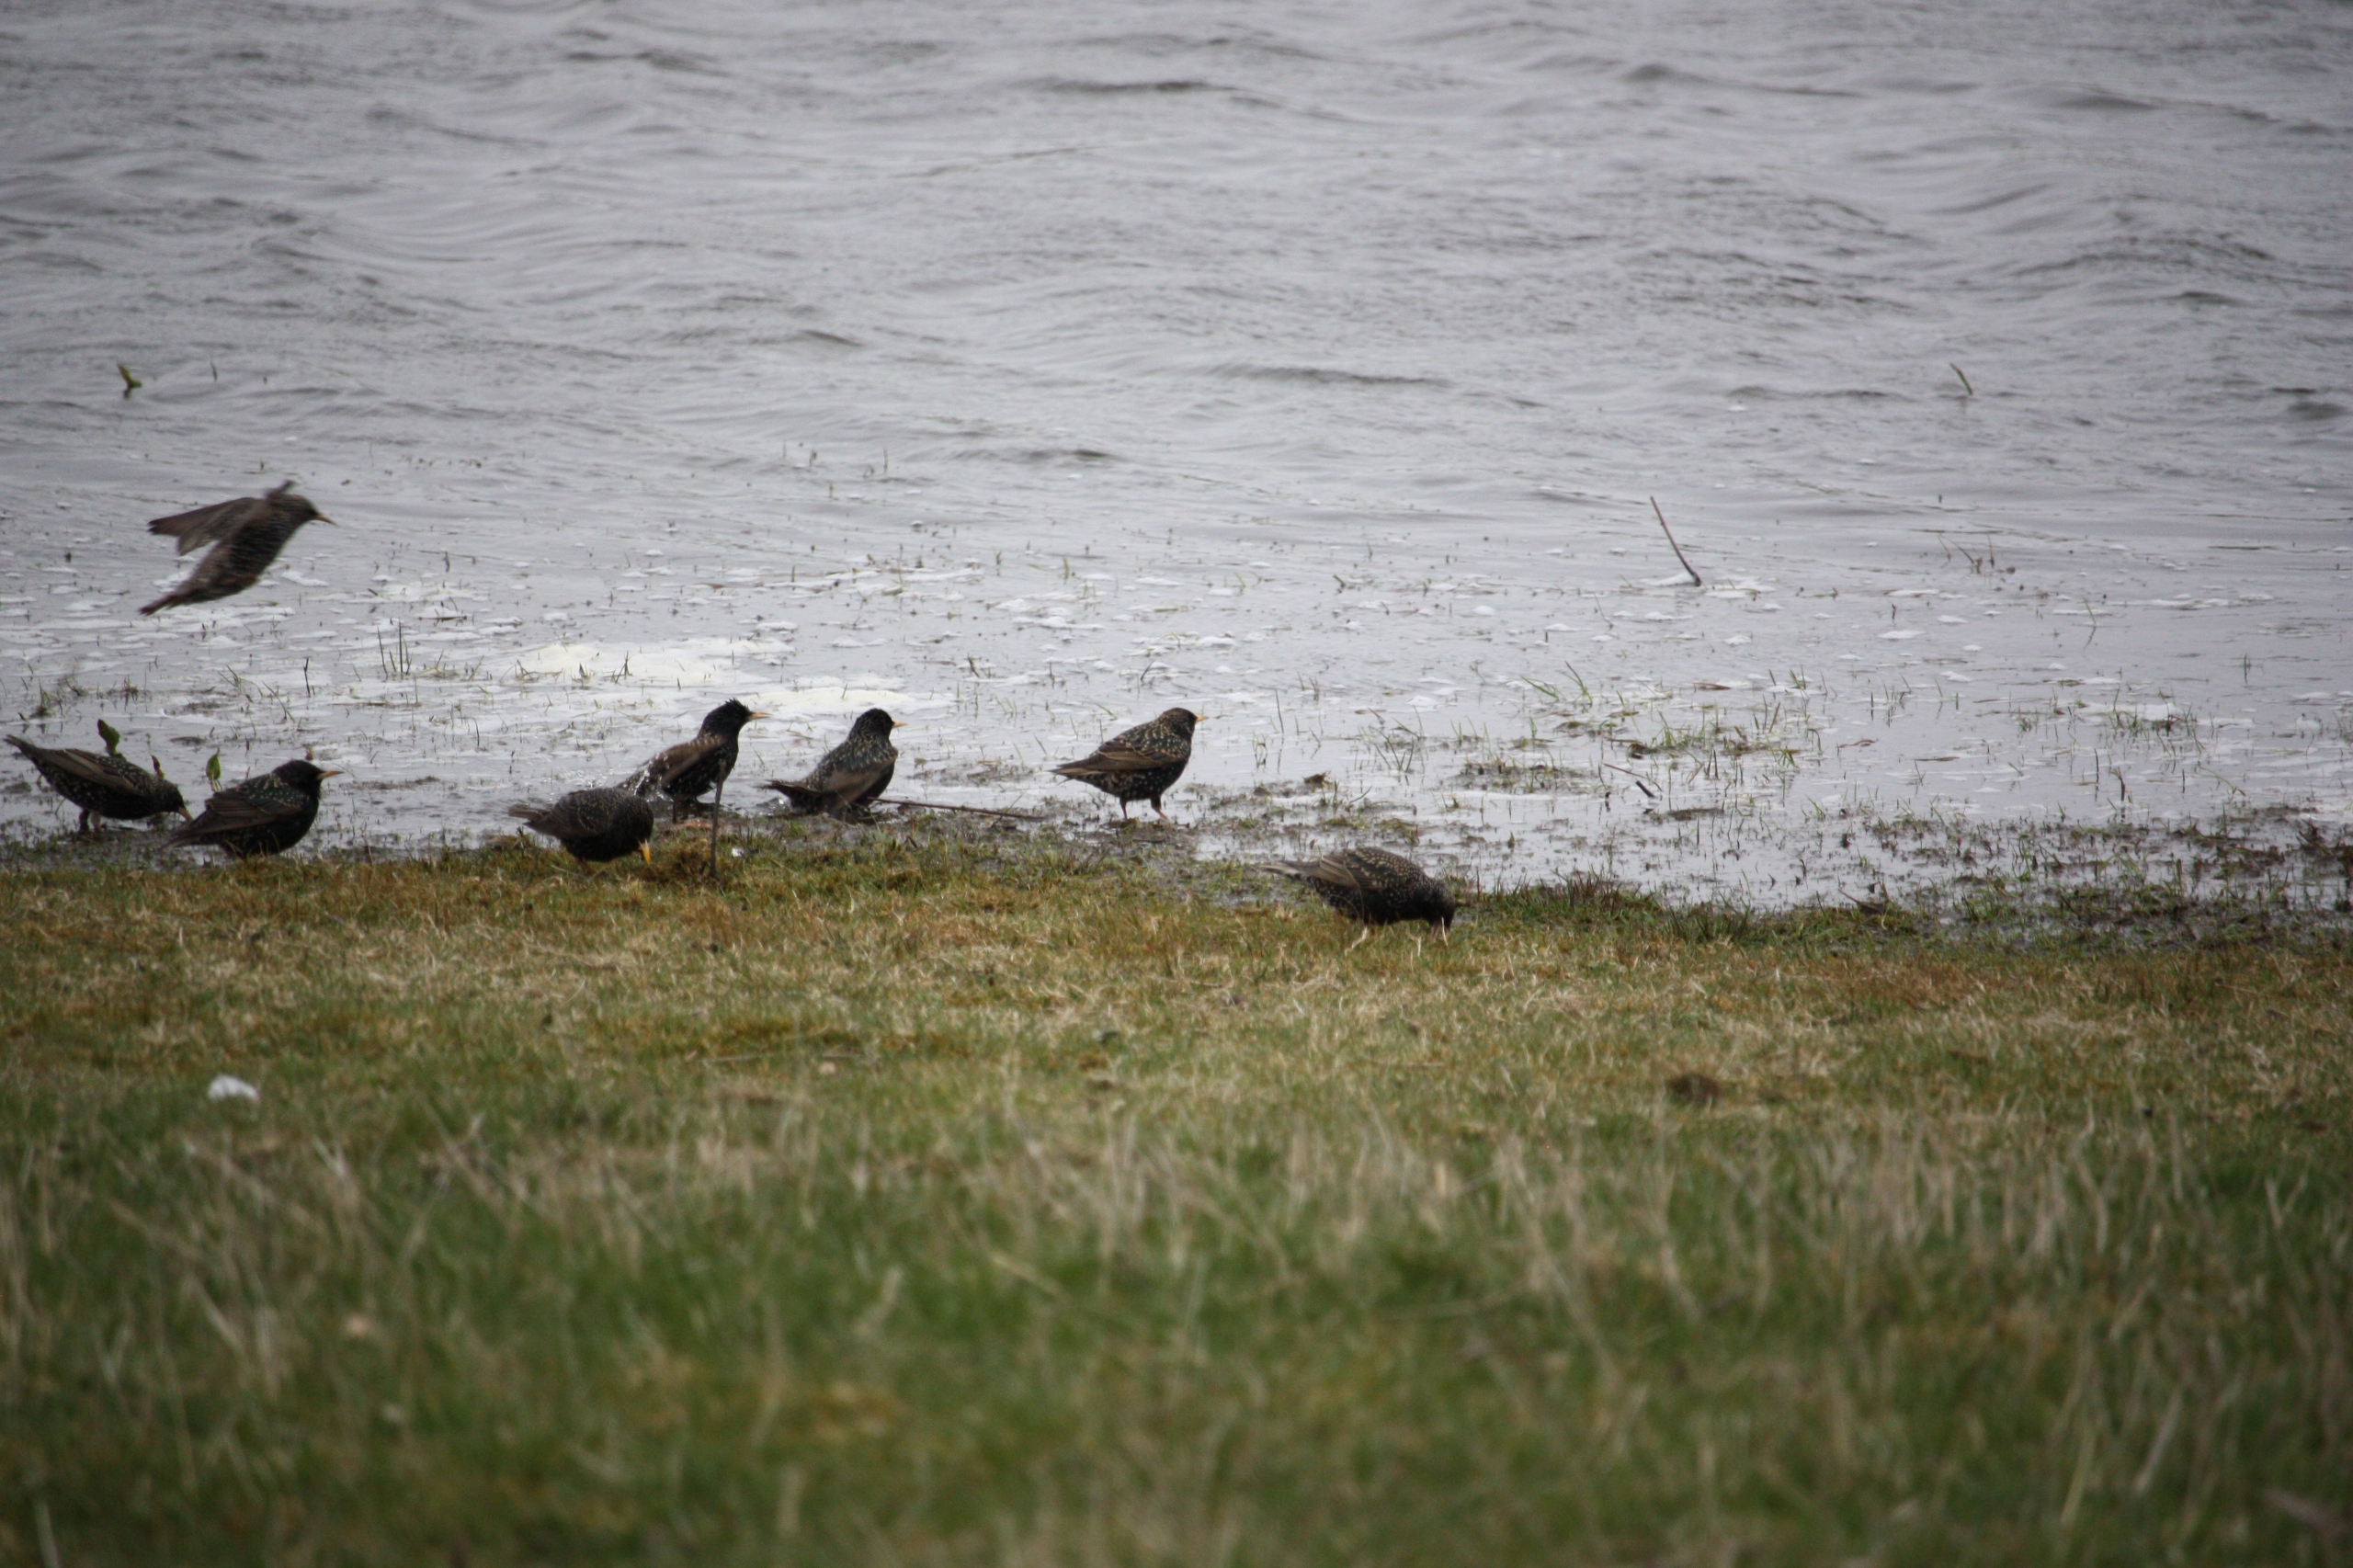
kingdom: Animalia
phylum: Chordata
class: Aves
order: Passeriformes
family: Sturnidae
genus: Sturnus
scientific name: Sturnus vulgaris
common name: Stær
